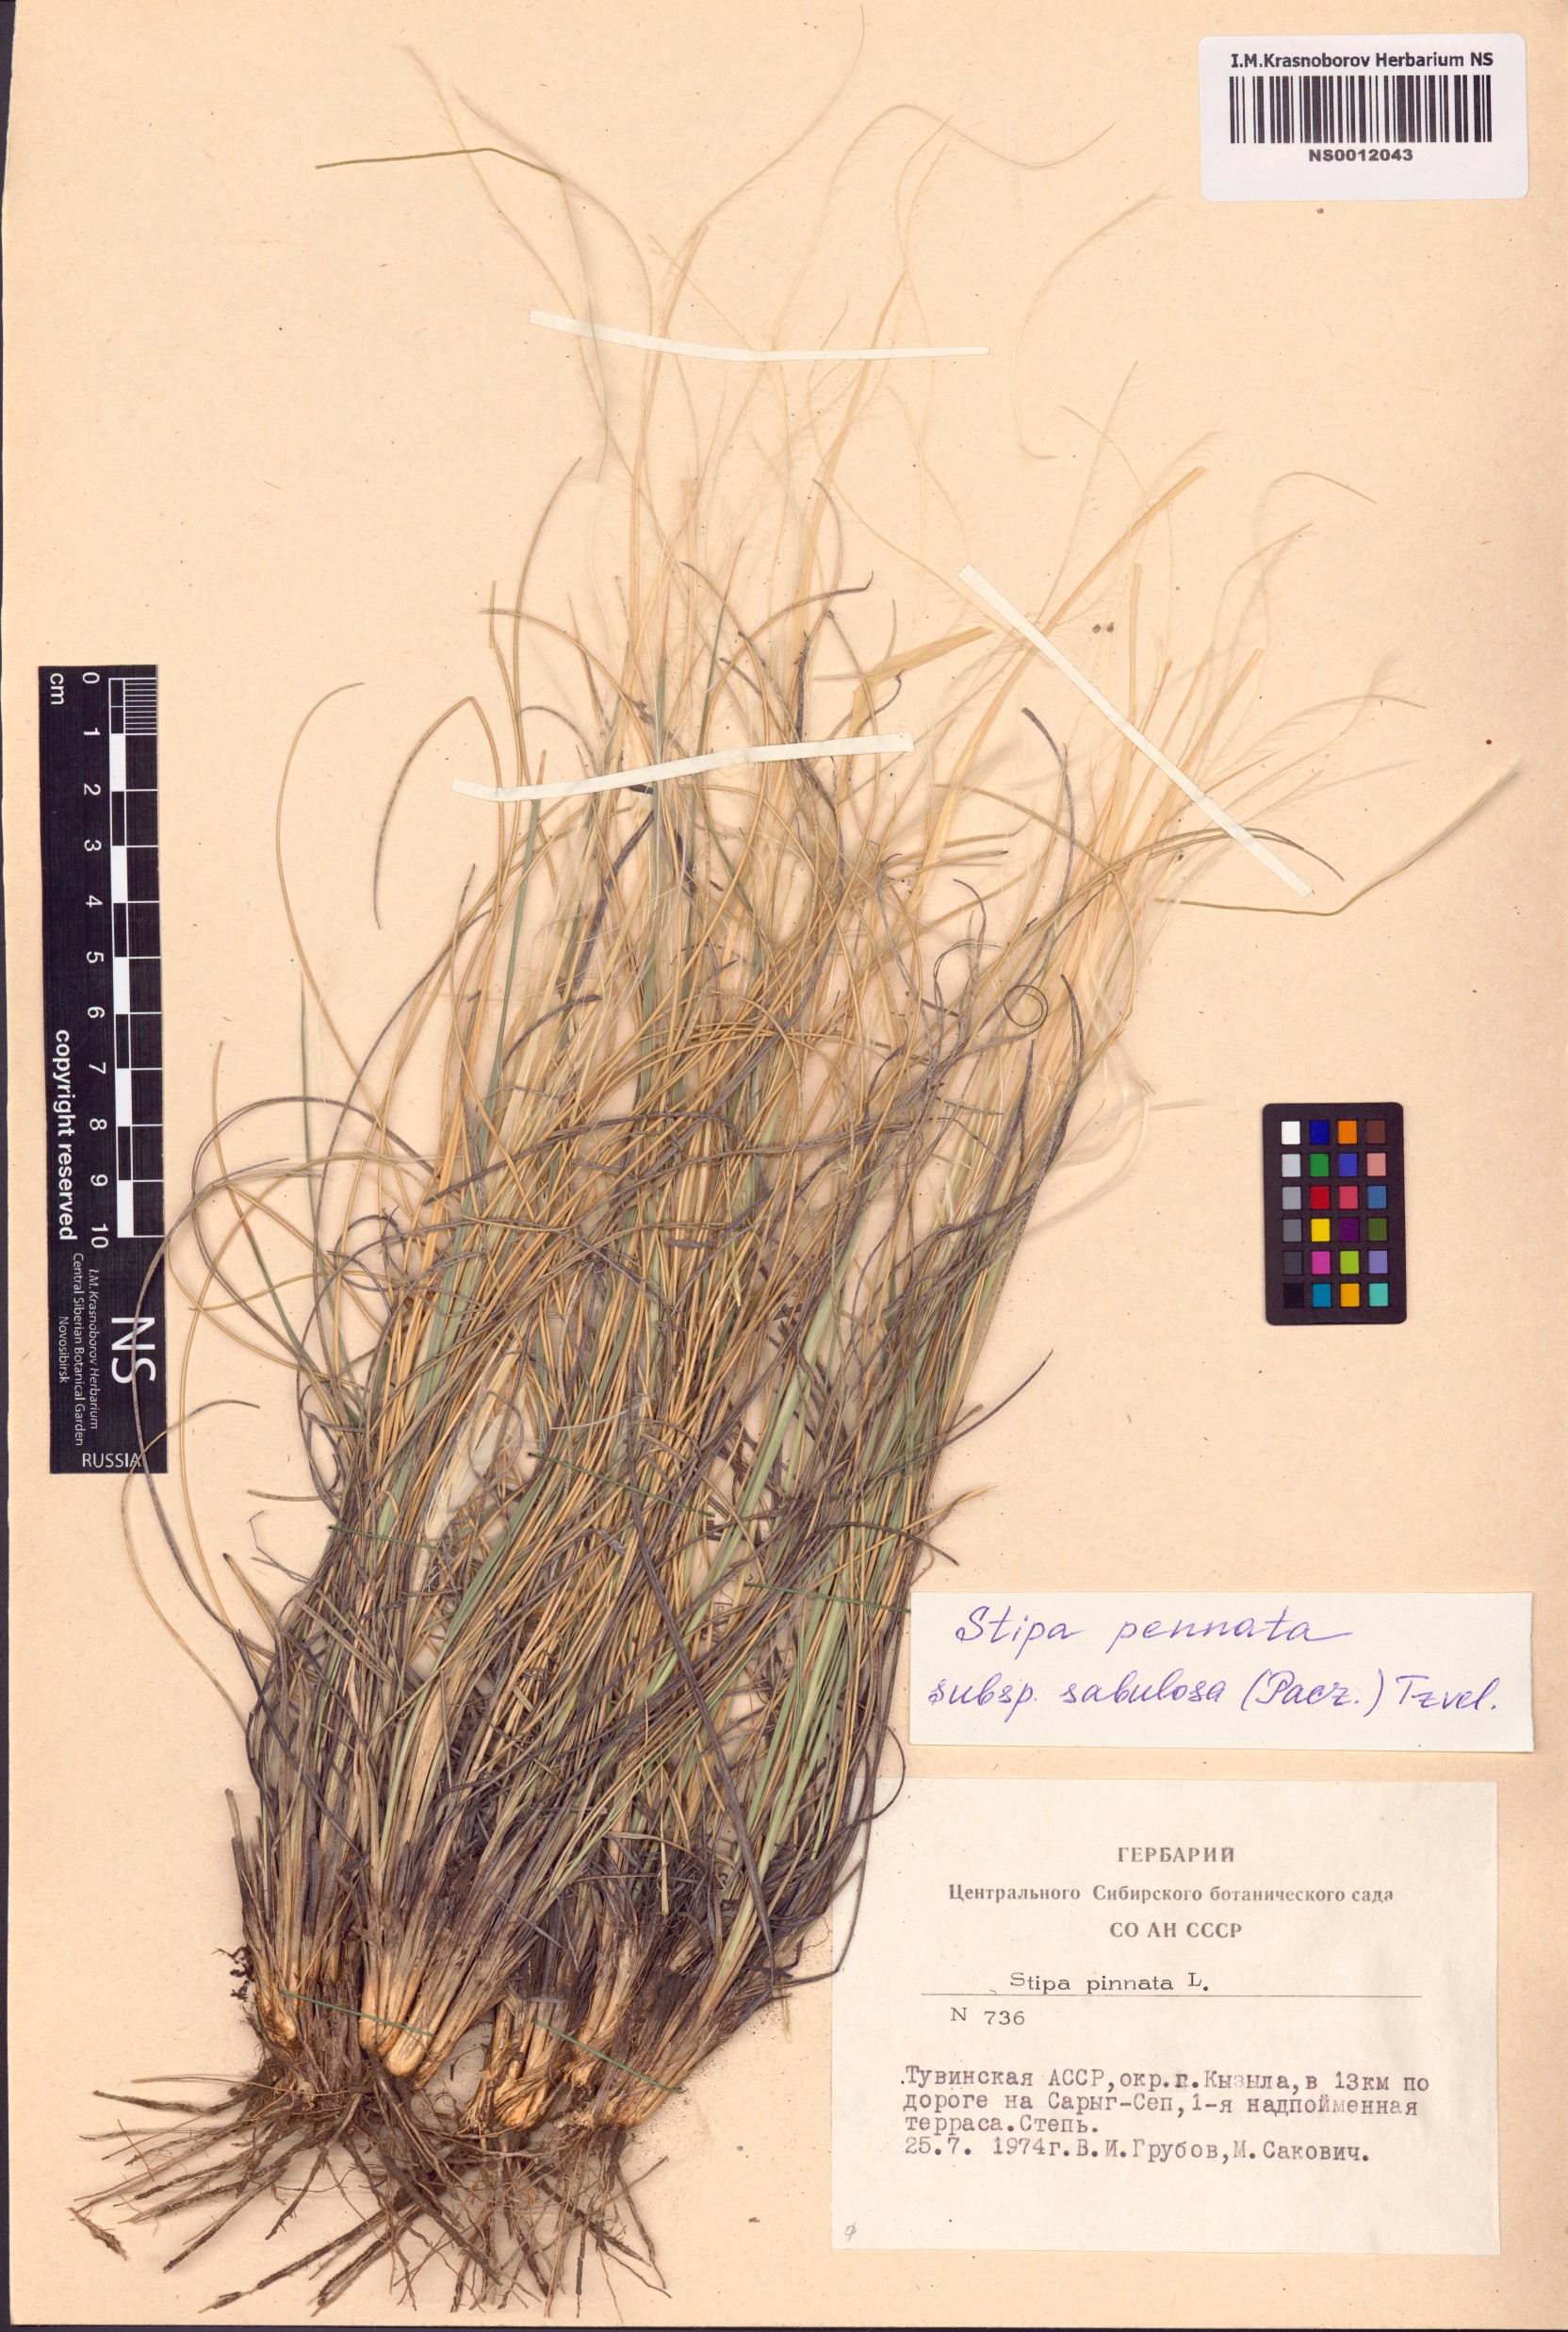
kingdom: Plantae
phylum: Tracheophyta
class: Liliopsida
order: Poales
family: Poaceae
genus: Stipa
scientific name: Stipa borysthenica
